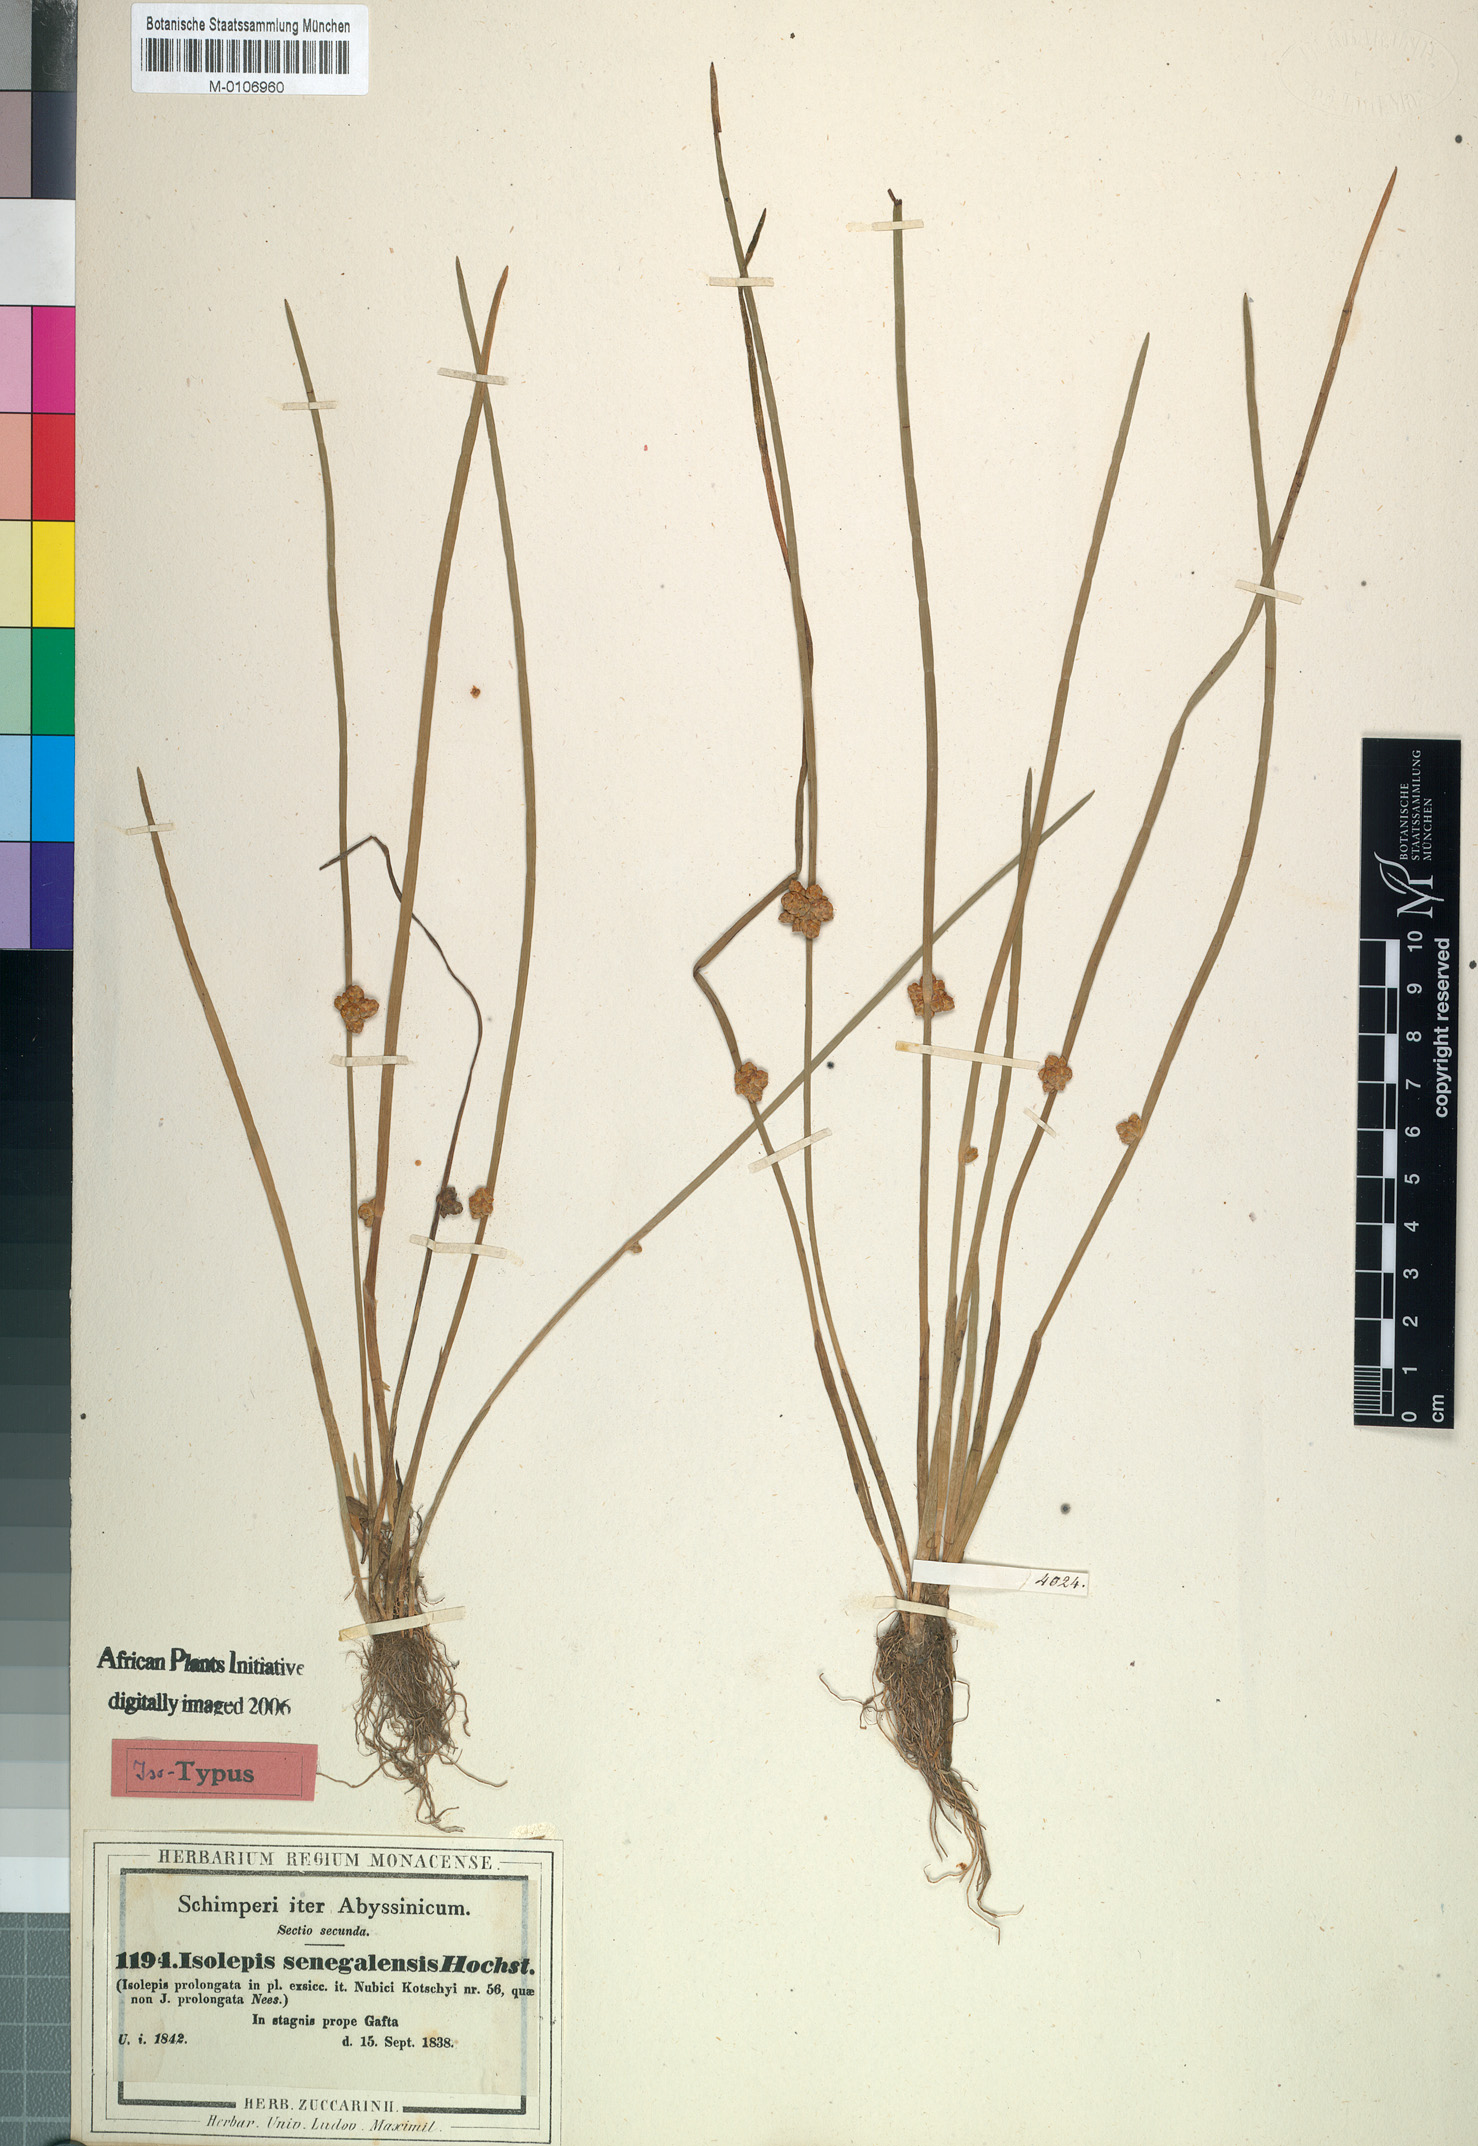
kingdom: Plantae
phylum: Tracheophyta
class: Liliopsida
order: Poales
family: Cyperaceae
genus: Schoenoplectiella
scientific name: Schoenoplectiella praelongata
